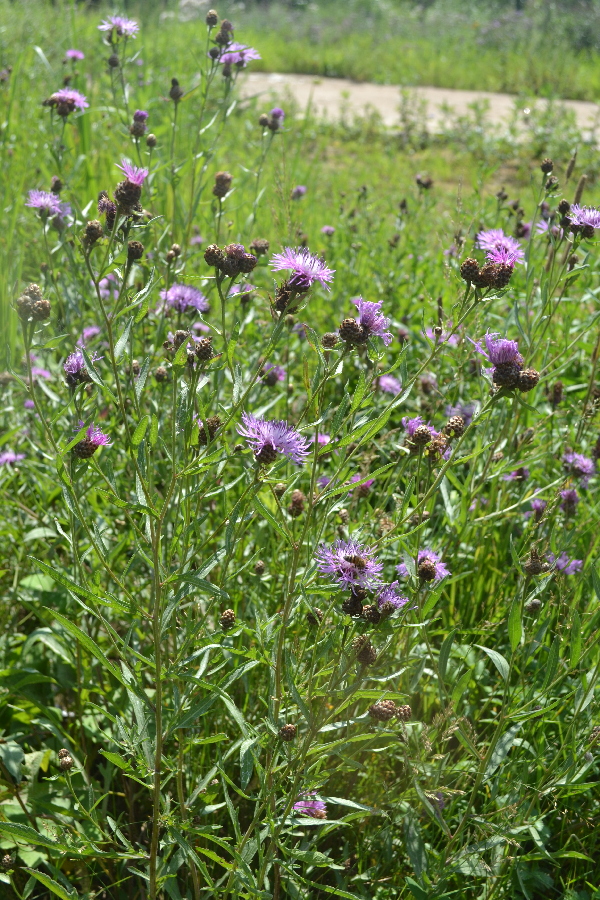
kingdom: Plantae
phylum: Tracheophyta
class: Magnoliopsida
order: Asterales
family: Asteraceae
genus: Centaurea
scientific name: Centaurea jacea
